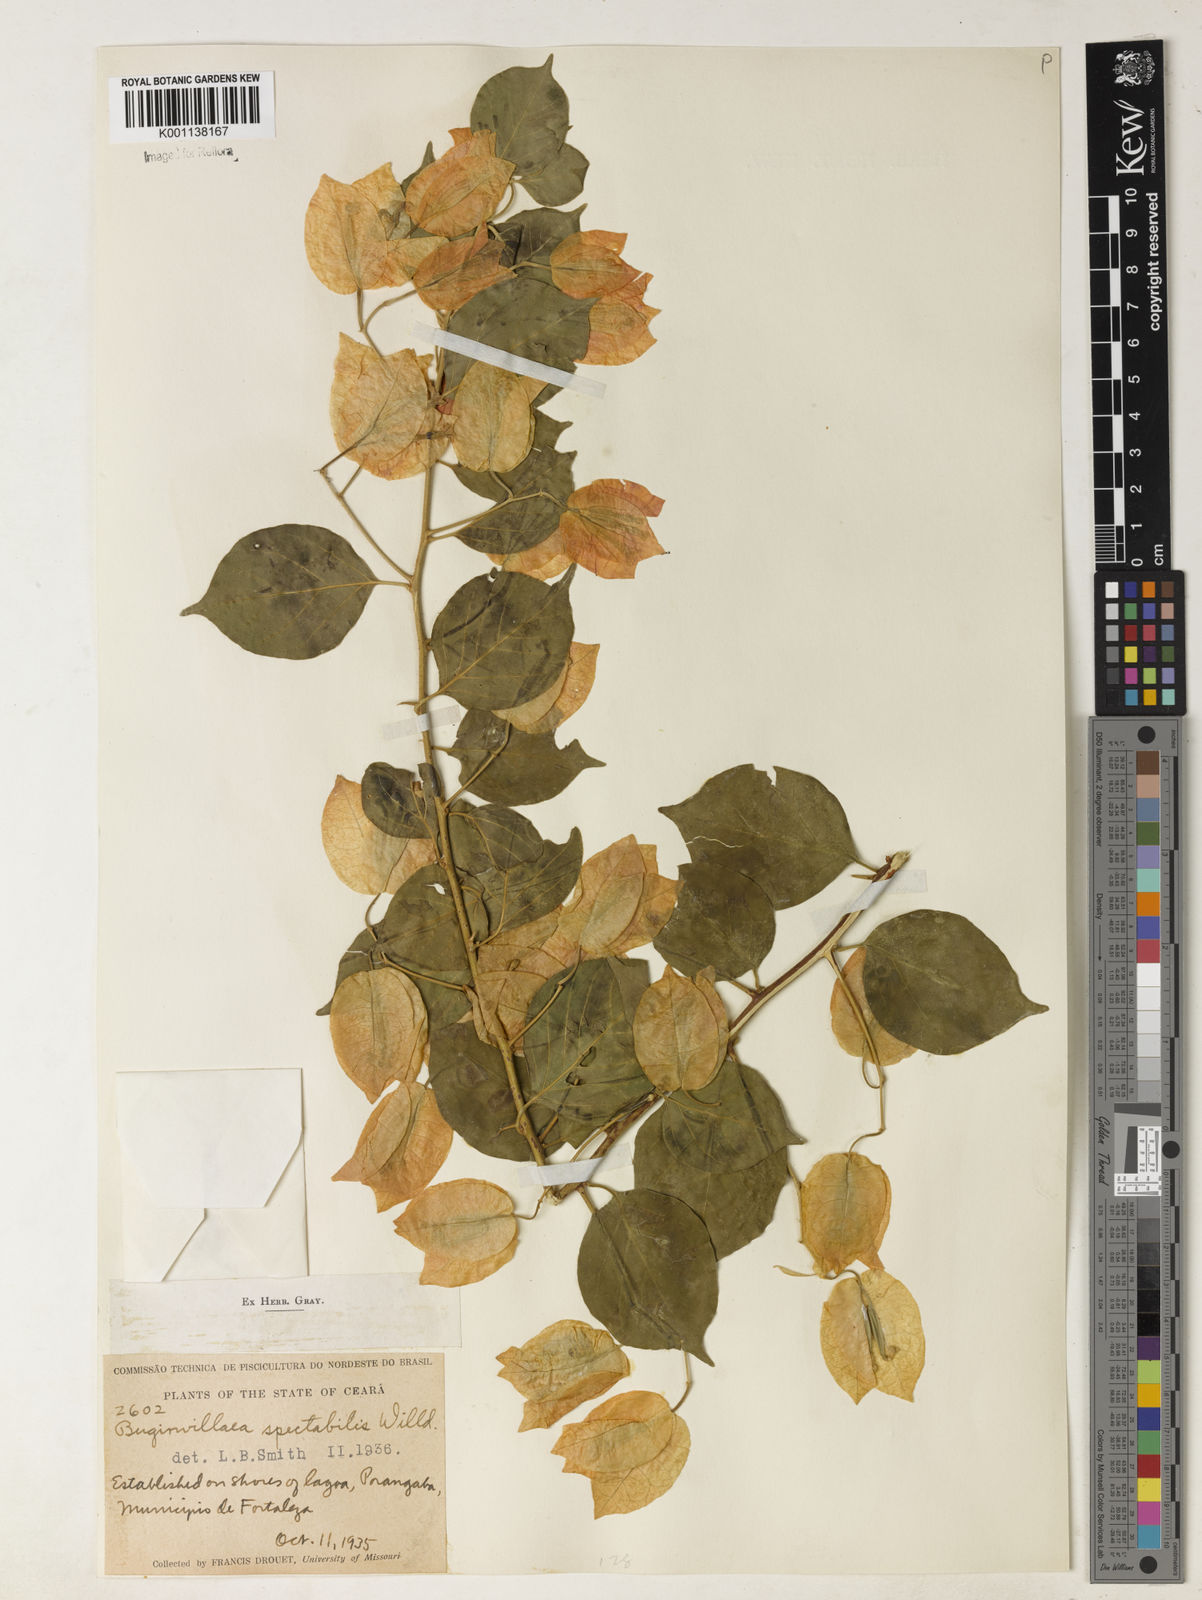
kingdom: Plantae
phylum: Tracheophyta
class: Magnoliopsida
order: Caryophyllales
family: Nyctaginaceae
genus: Bougainvillea
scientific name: Bougainvillea spectabilis
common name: Great bougainvillea
